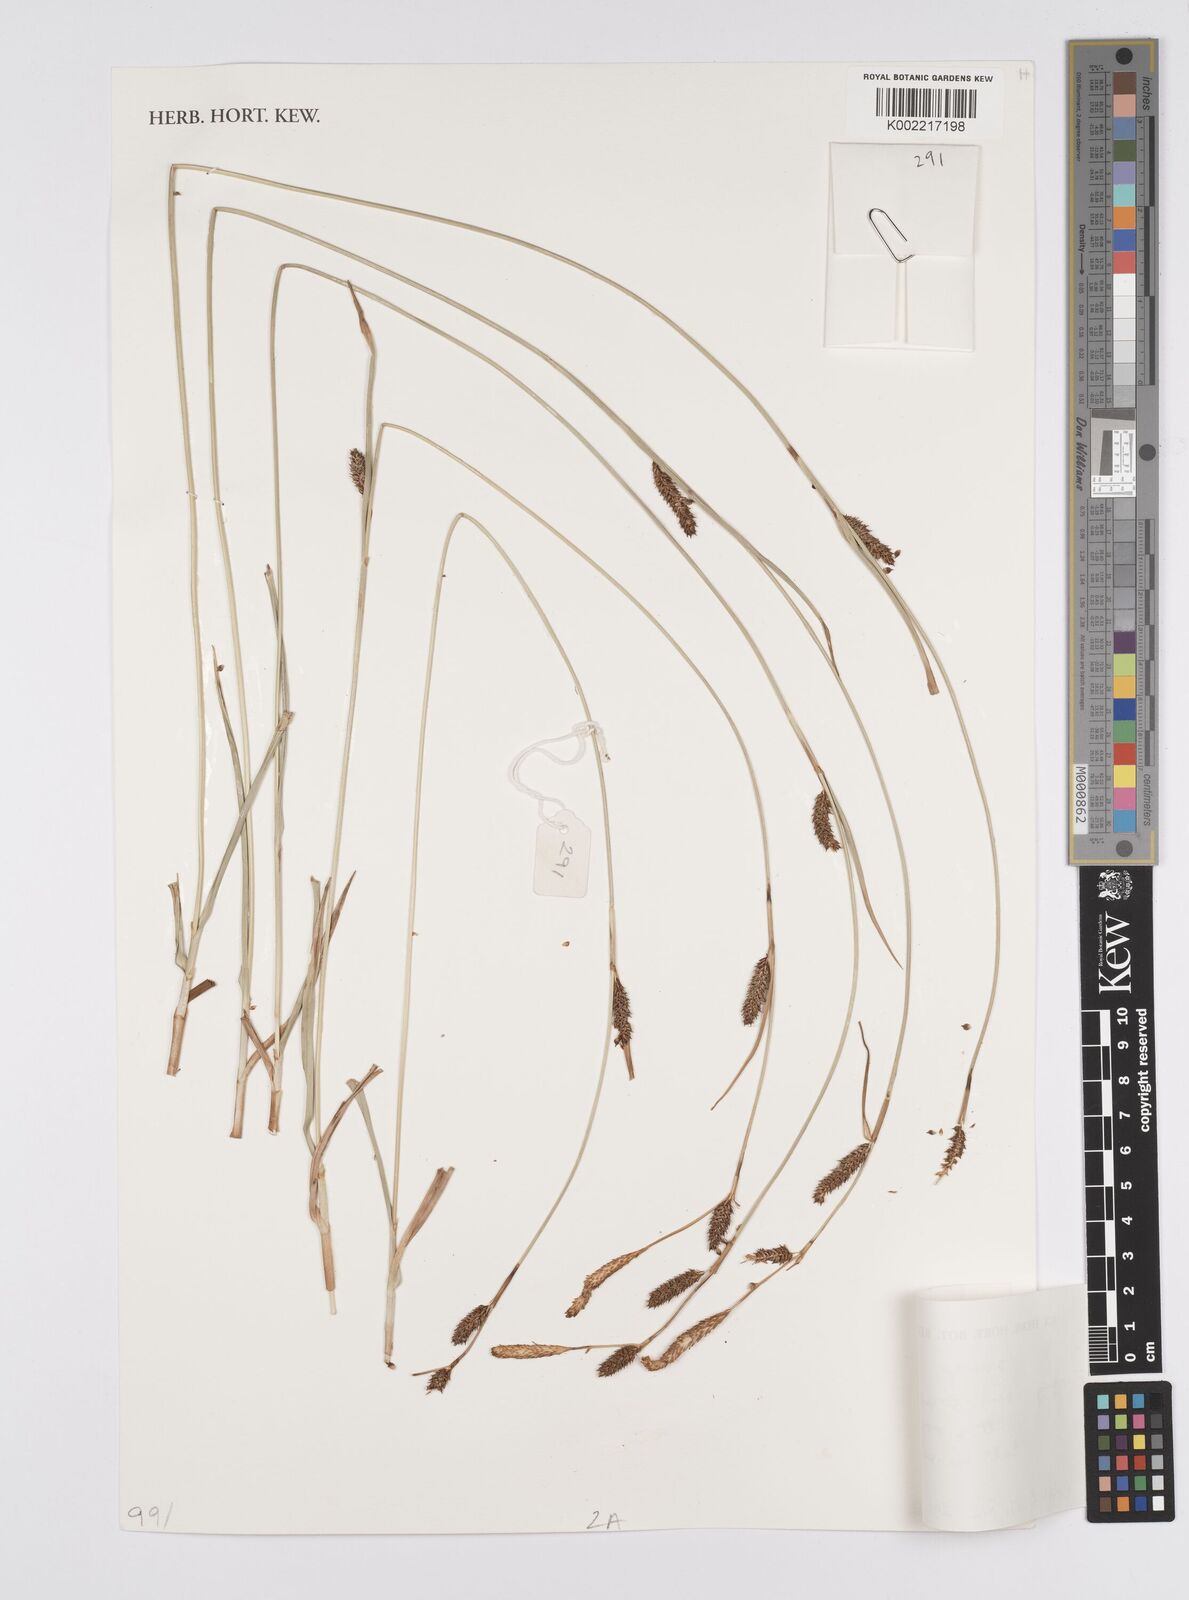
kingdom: Plantae
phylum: Tracheophyta
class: Liliopsida
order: Poales
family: Cyperaceae
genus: Carex
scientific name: Carex
